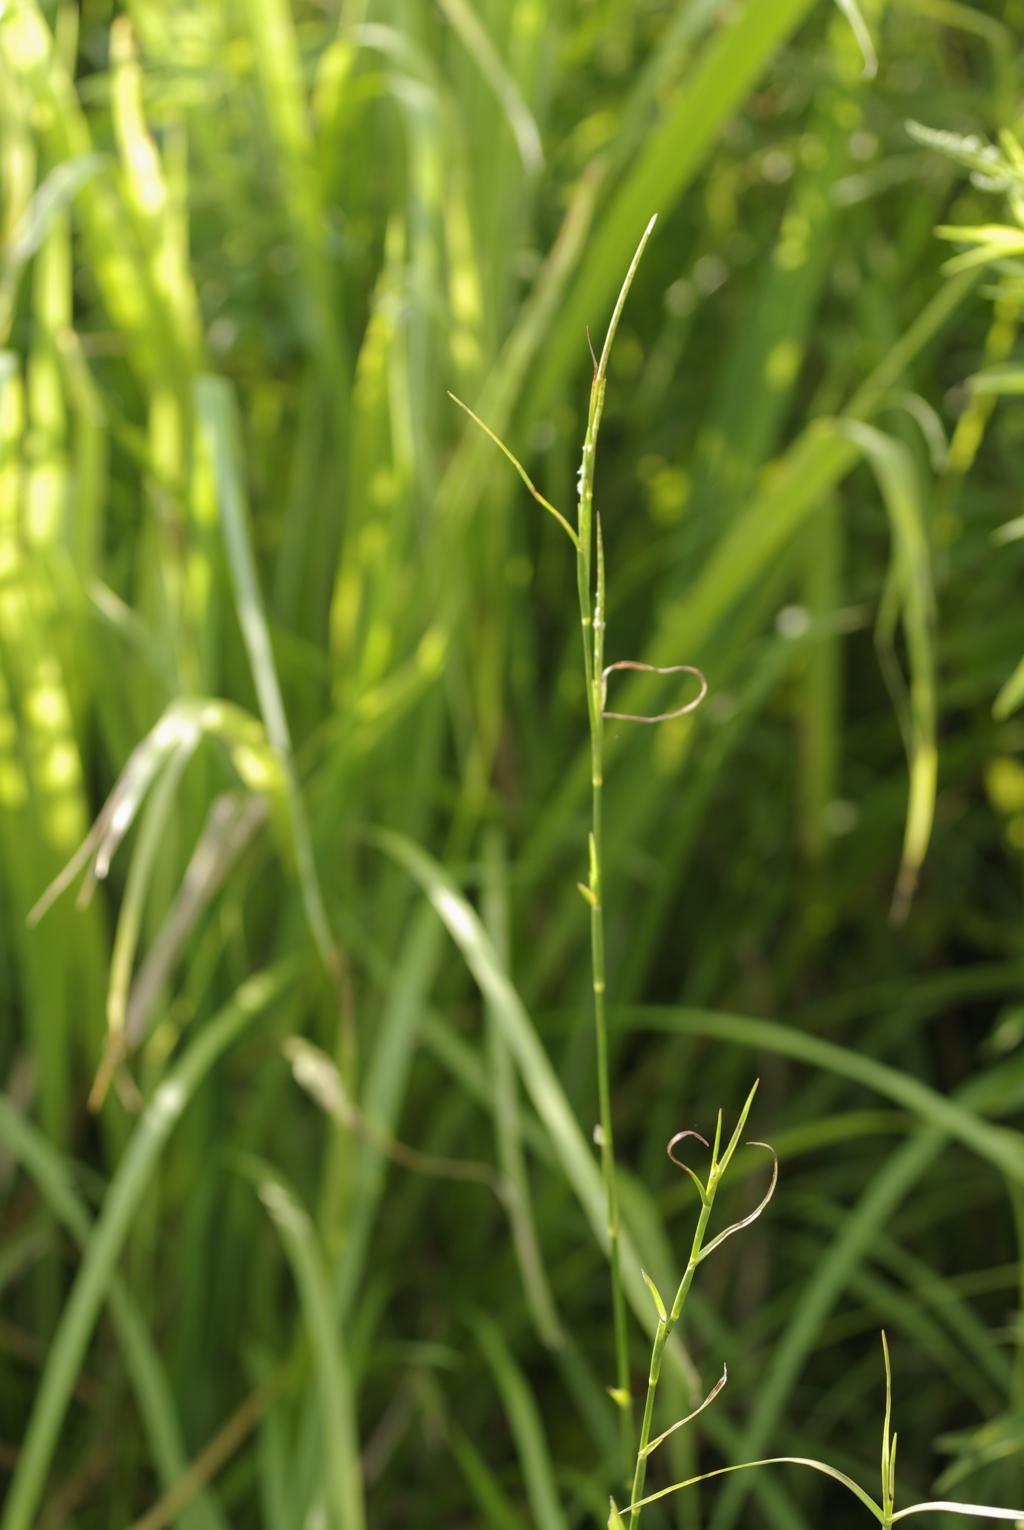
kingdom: Plantae
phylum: Tracheophyta
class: Liliopsida
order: Poales
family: Poaceae
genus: Hemarthria
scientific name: Hemarthria compressa
